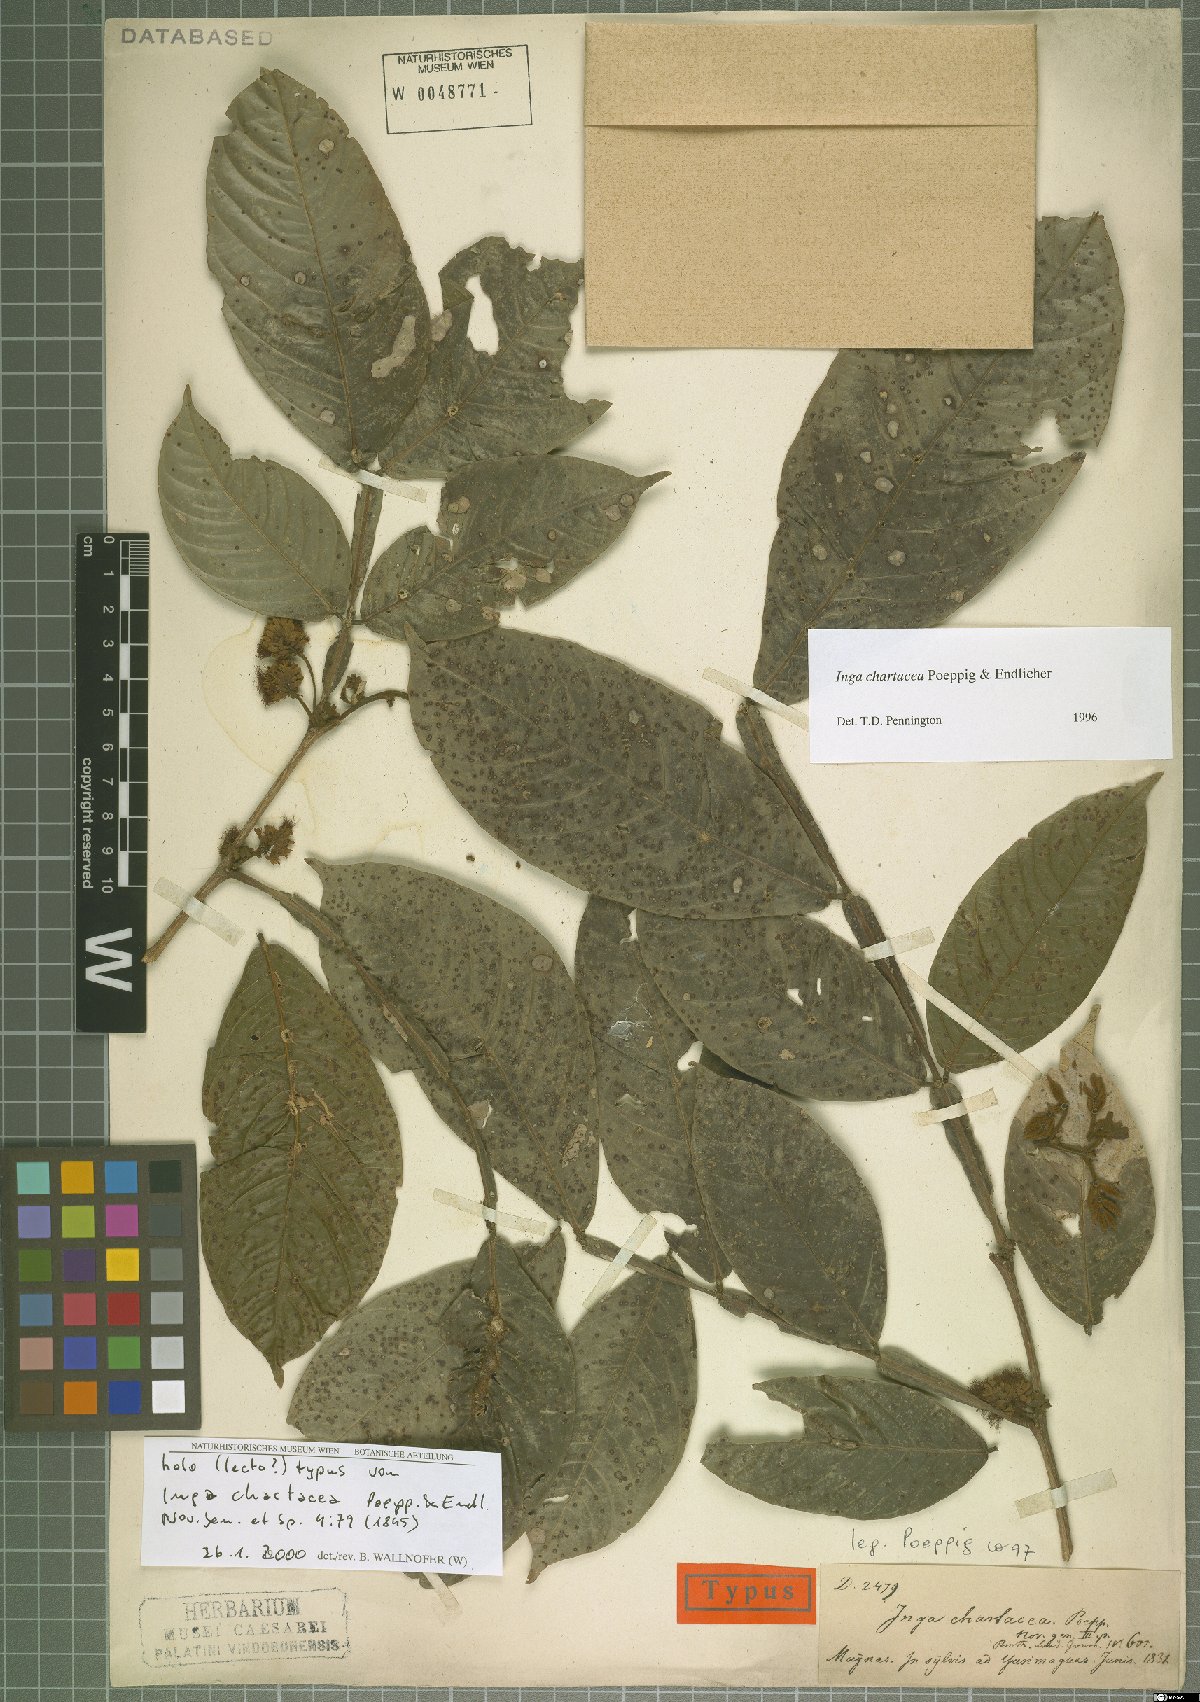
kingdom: Plantae
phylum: Tracheophyta
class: Magnoliopsida
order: Fabales
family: Fabaceae
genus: Inga
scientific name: Inga chartacea
